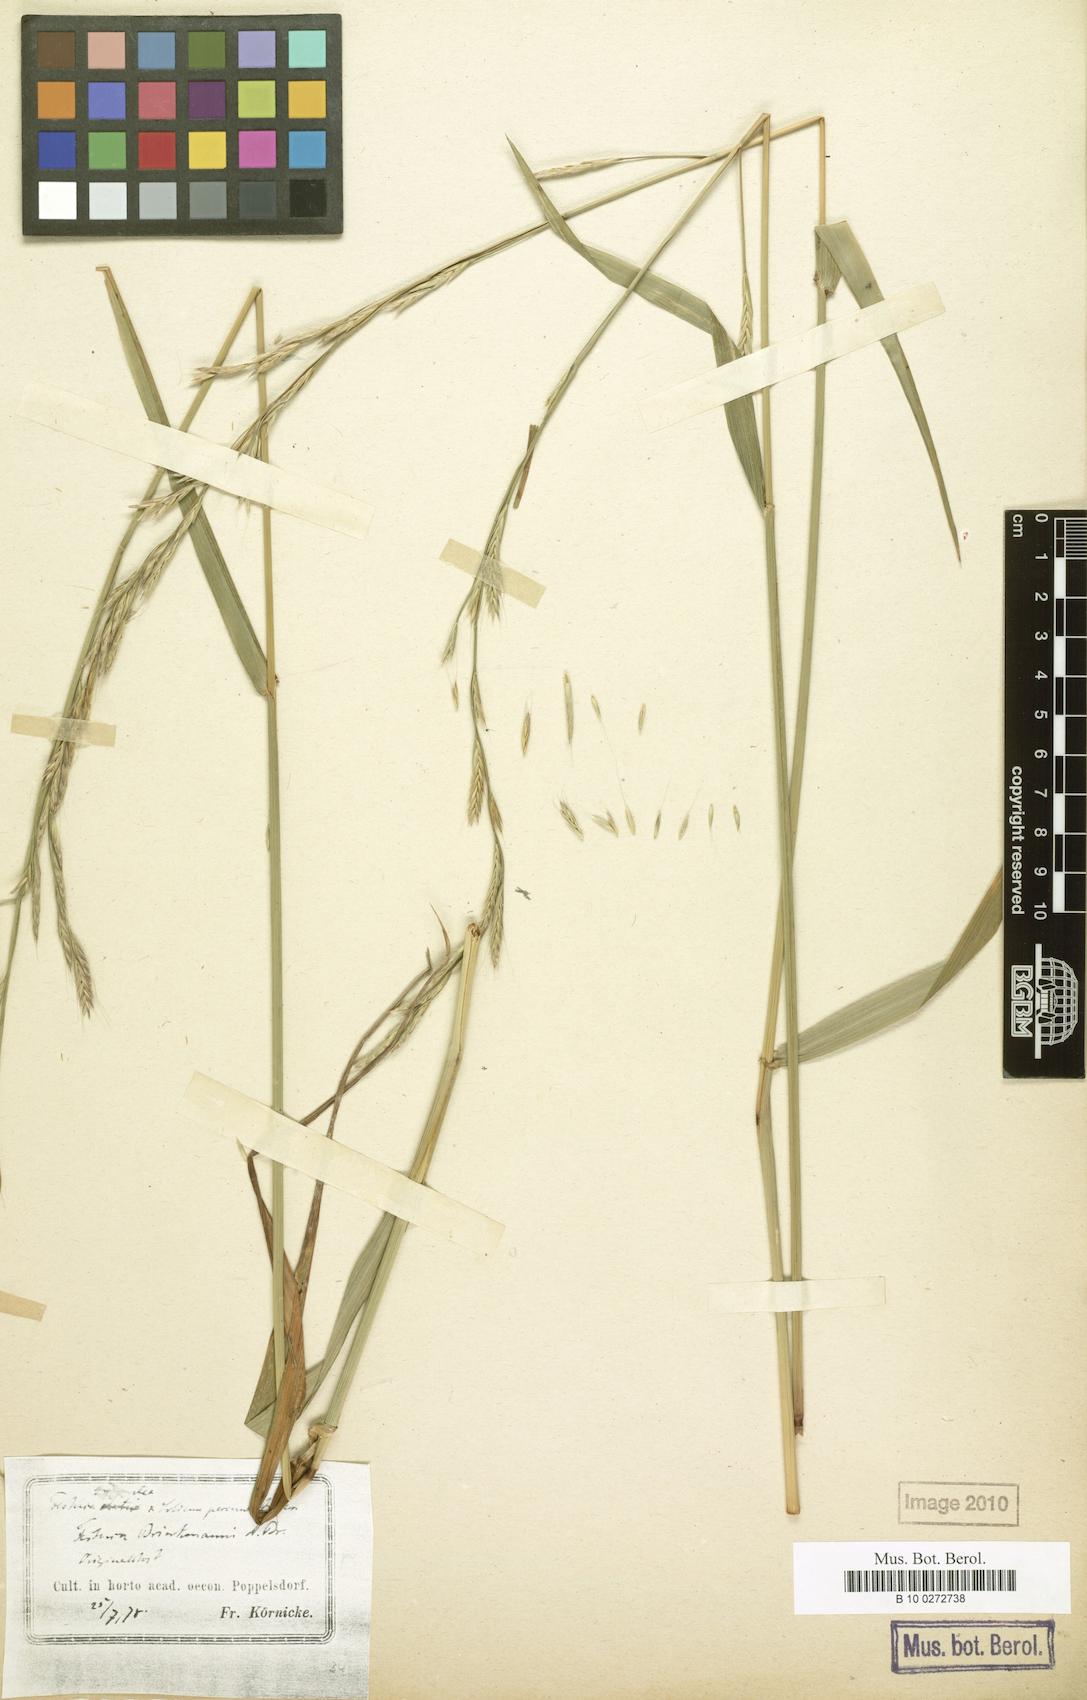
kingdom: Plantae
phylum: Tracheophyta
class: Liliopsida
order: Poales
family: Poaceae
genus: Lolium
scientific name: Lolium brinkmannii
